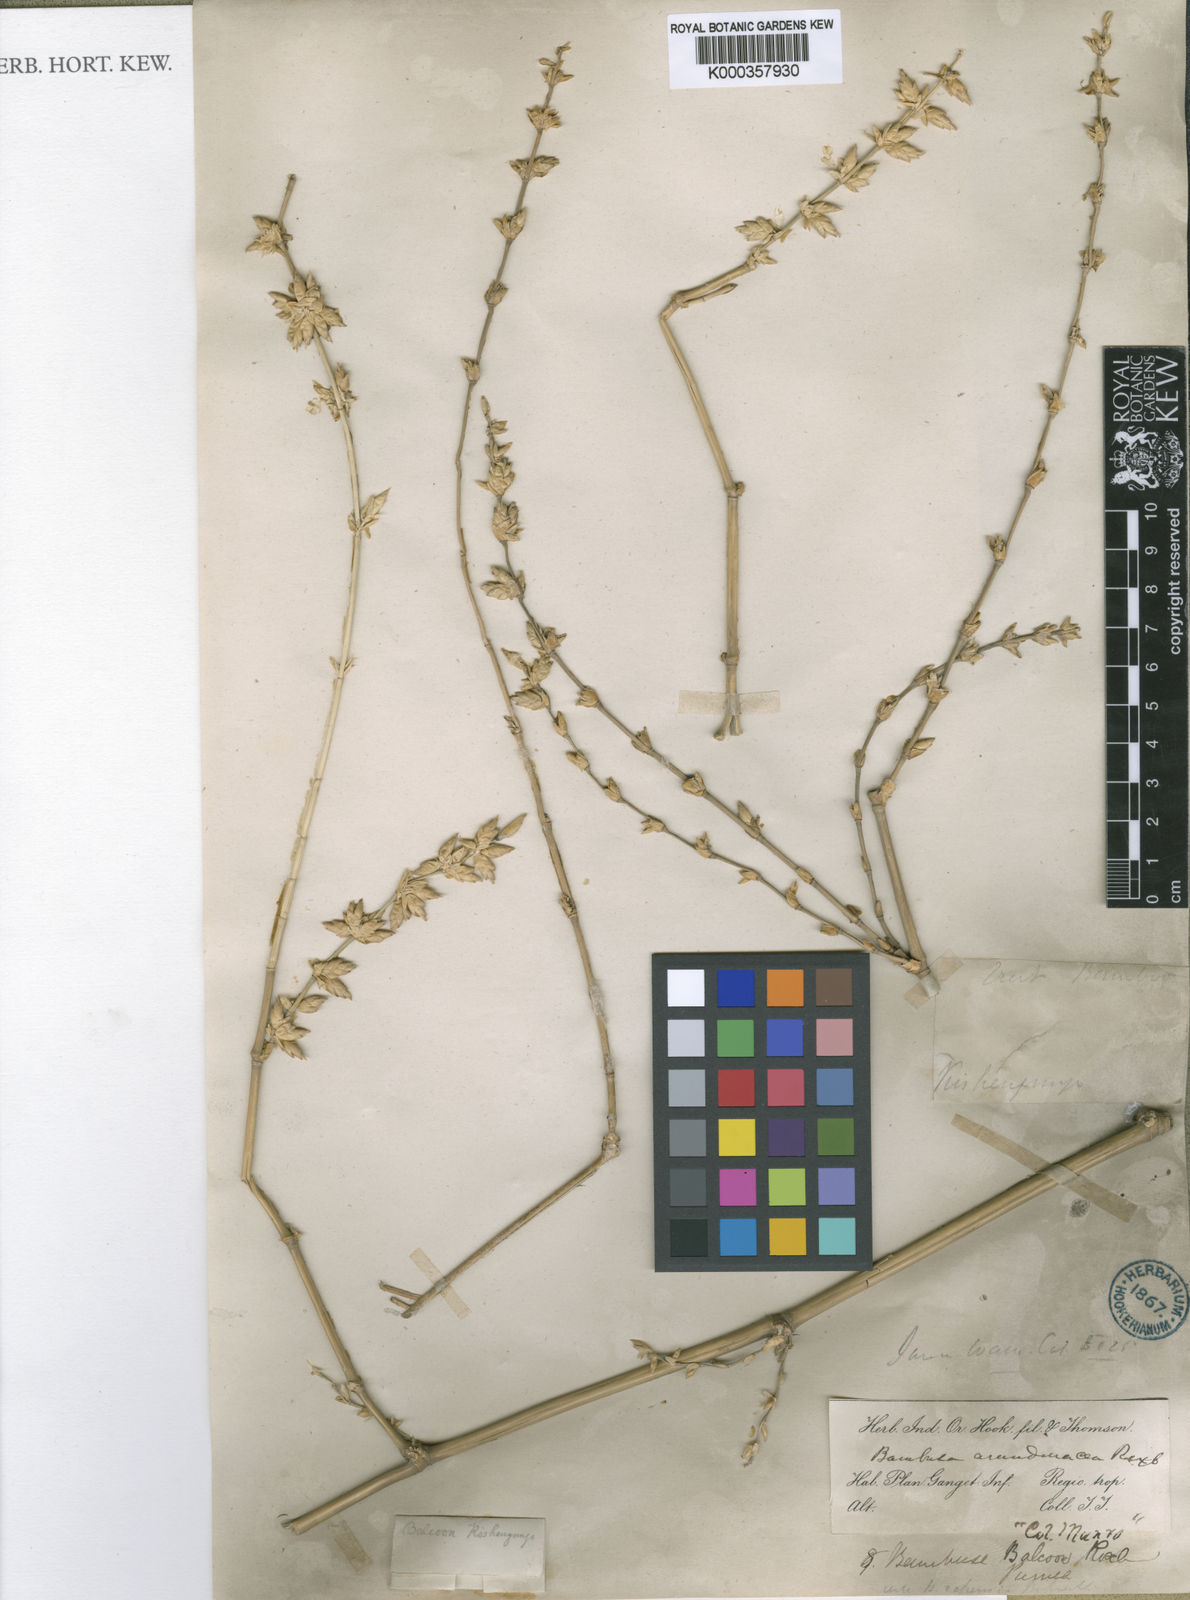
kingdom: Plantae
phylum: Tracheophyta
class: Liliopsida
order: Poales
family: Poaceae
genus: Bambusa
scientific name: Bambusa balcooa
